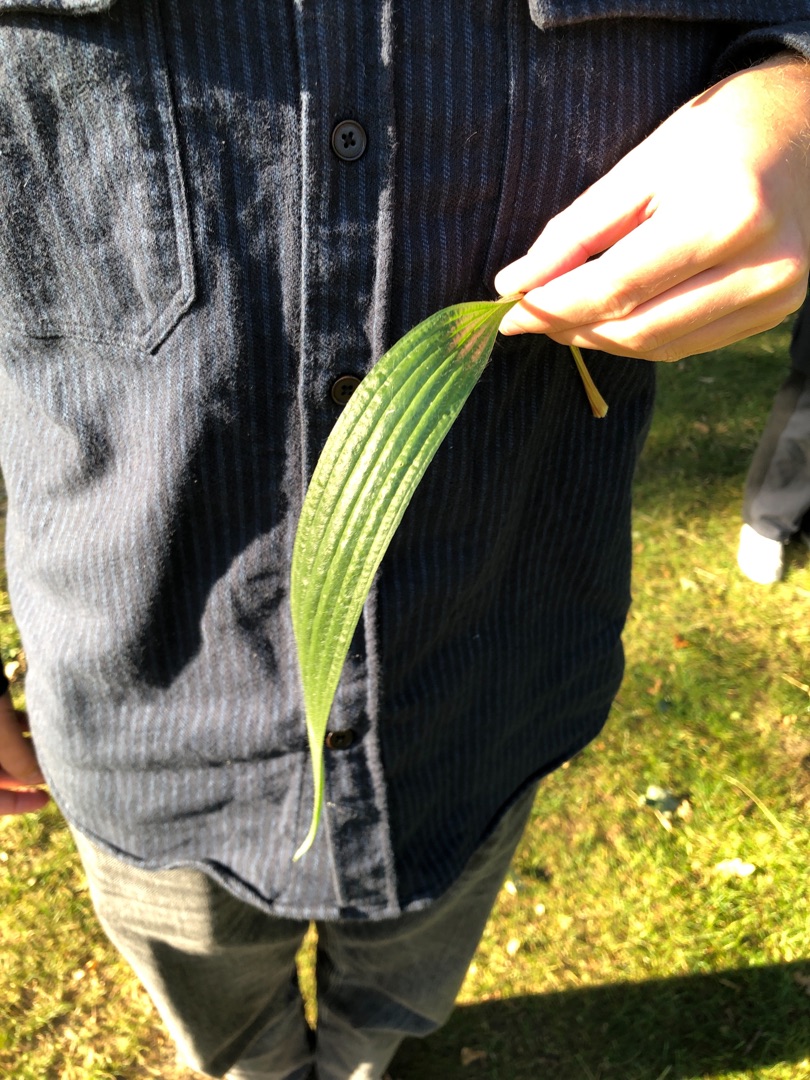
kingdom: Plantae
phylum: Tracheophyta
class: Magnoliopsida
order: Lamiales
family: Plantaginaceae
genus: Plantago
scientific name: Plantago lanceolata
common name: Lancet-vejbred
